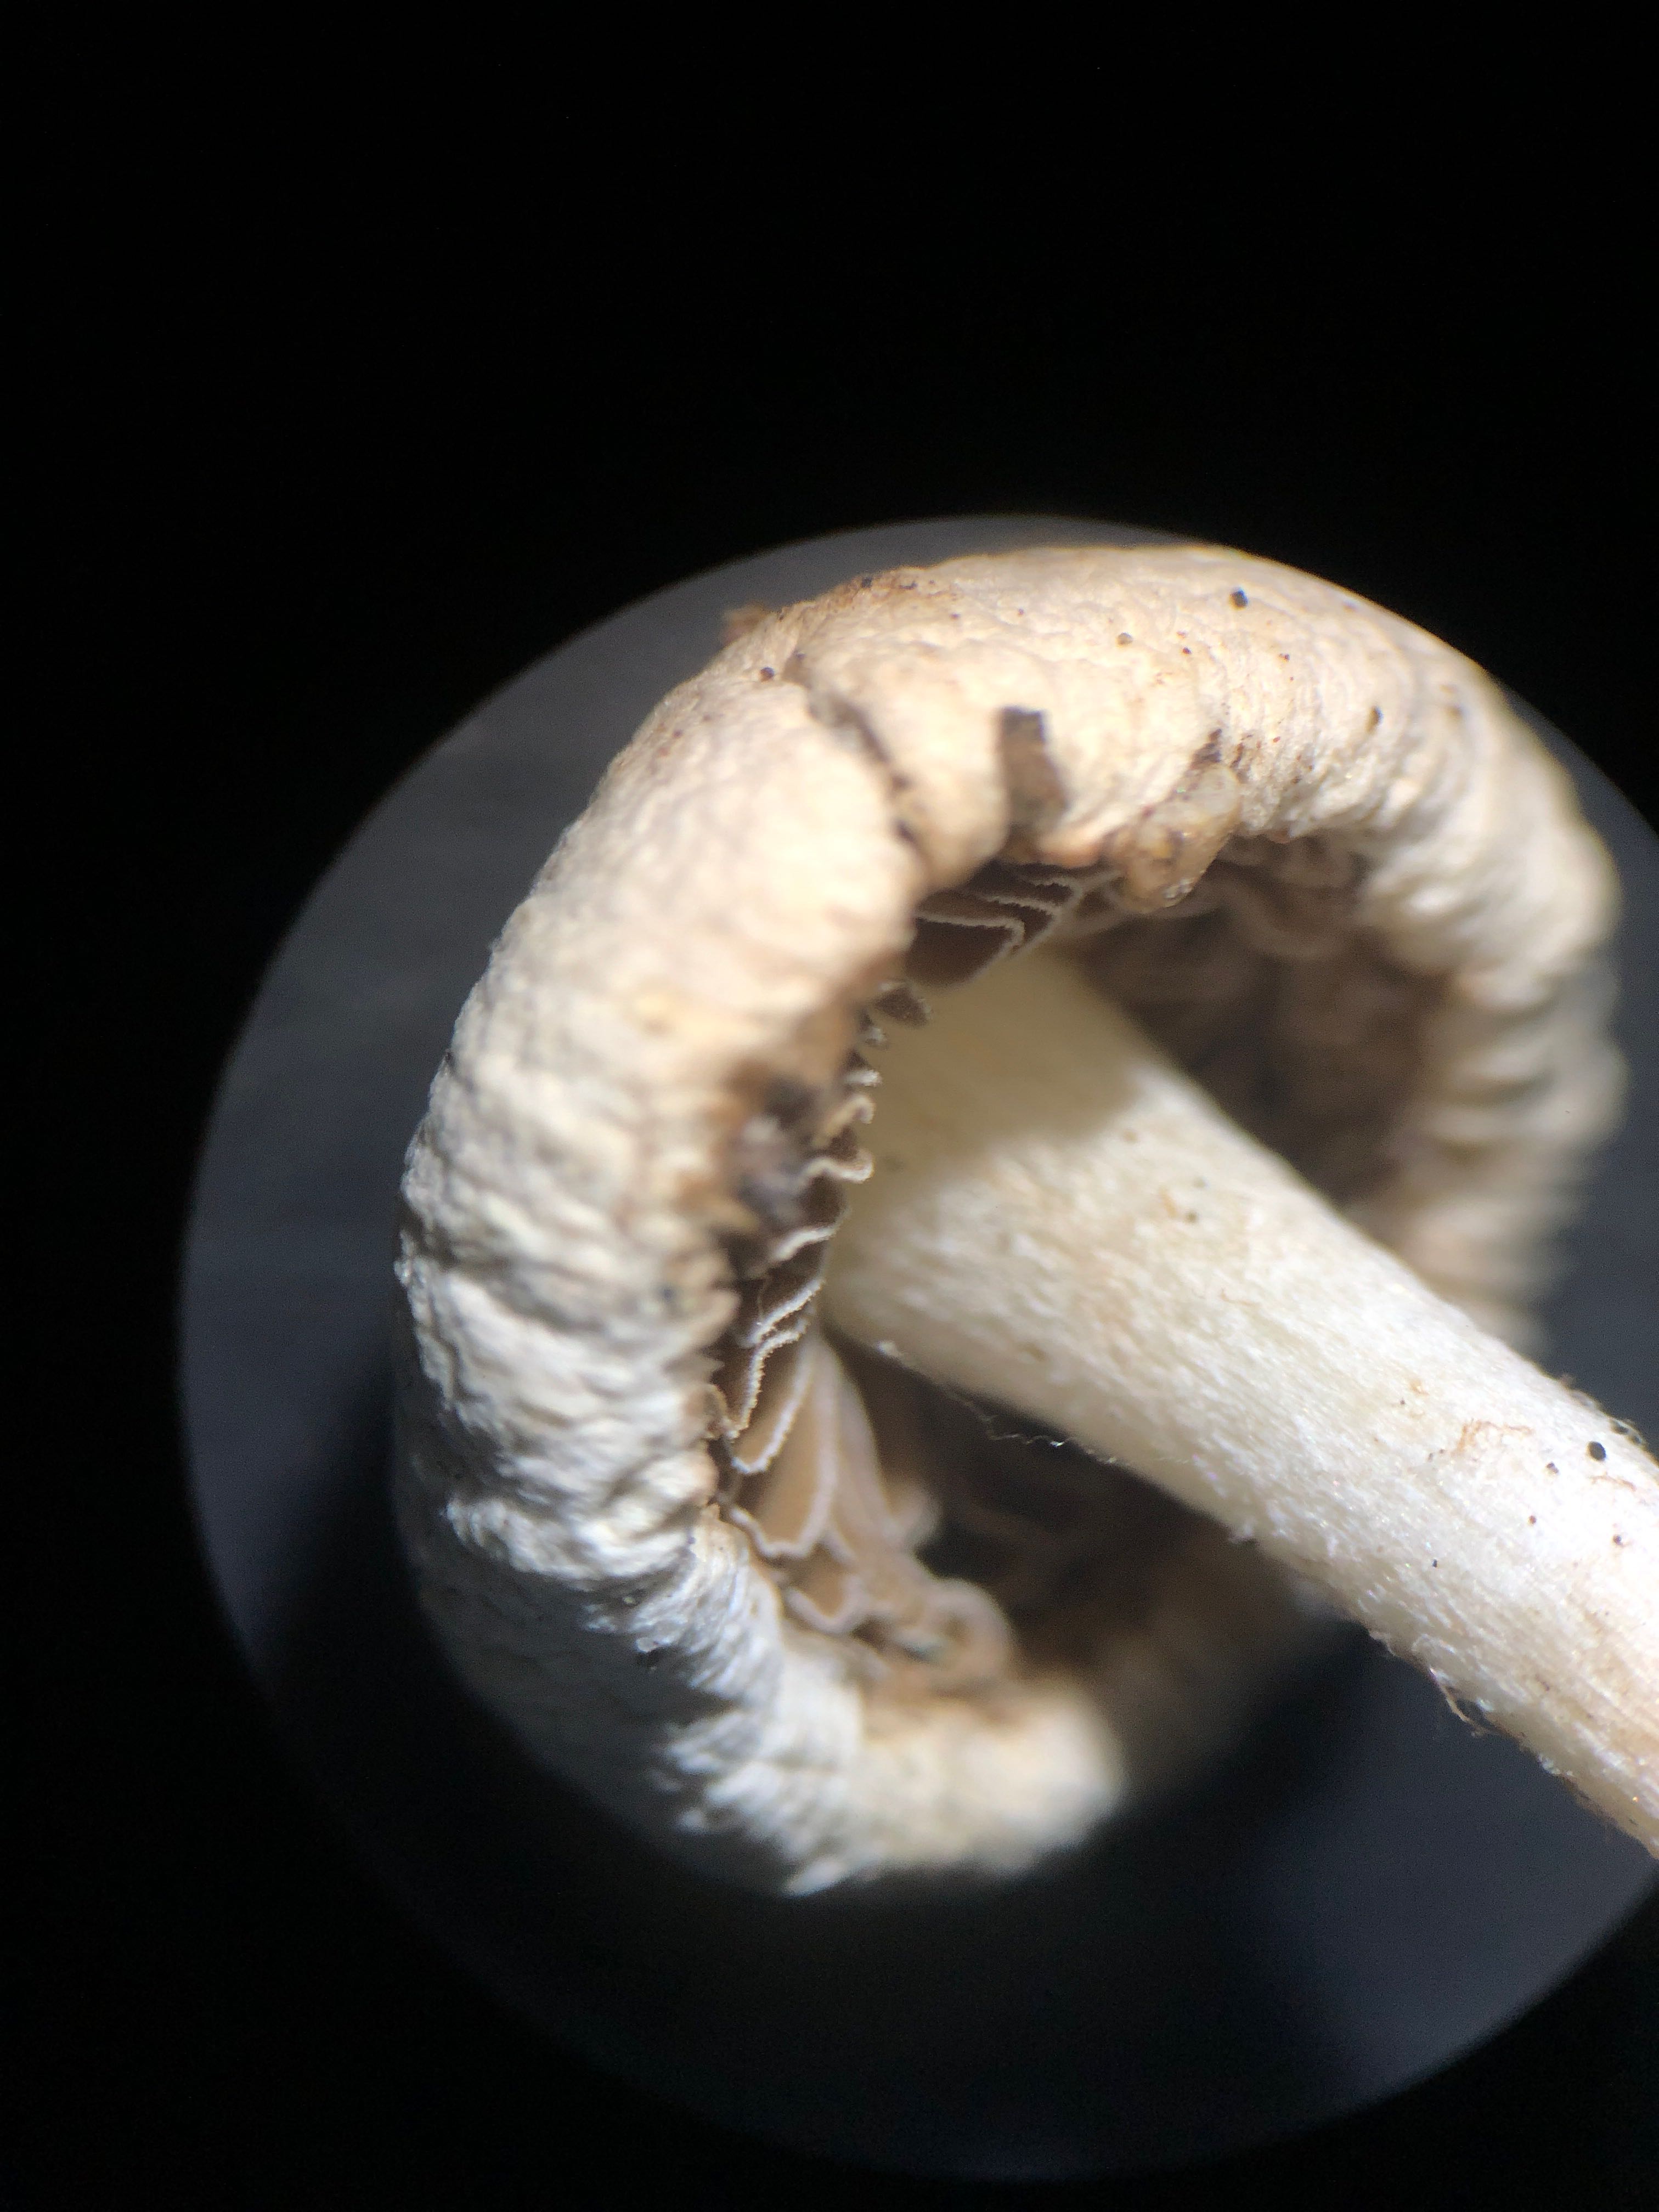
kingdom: Fungi
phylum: Basidiomycota
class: Agaricomycetes
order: Agaricales
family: Inocybaceae
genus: Inocybe
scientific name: Inocybe
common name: almindelig trævlhat
